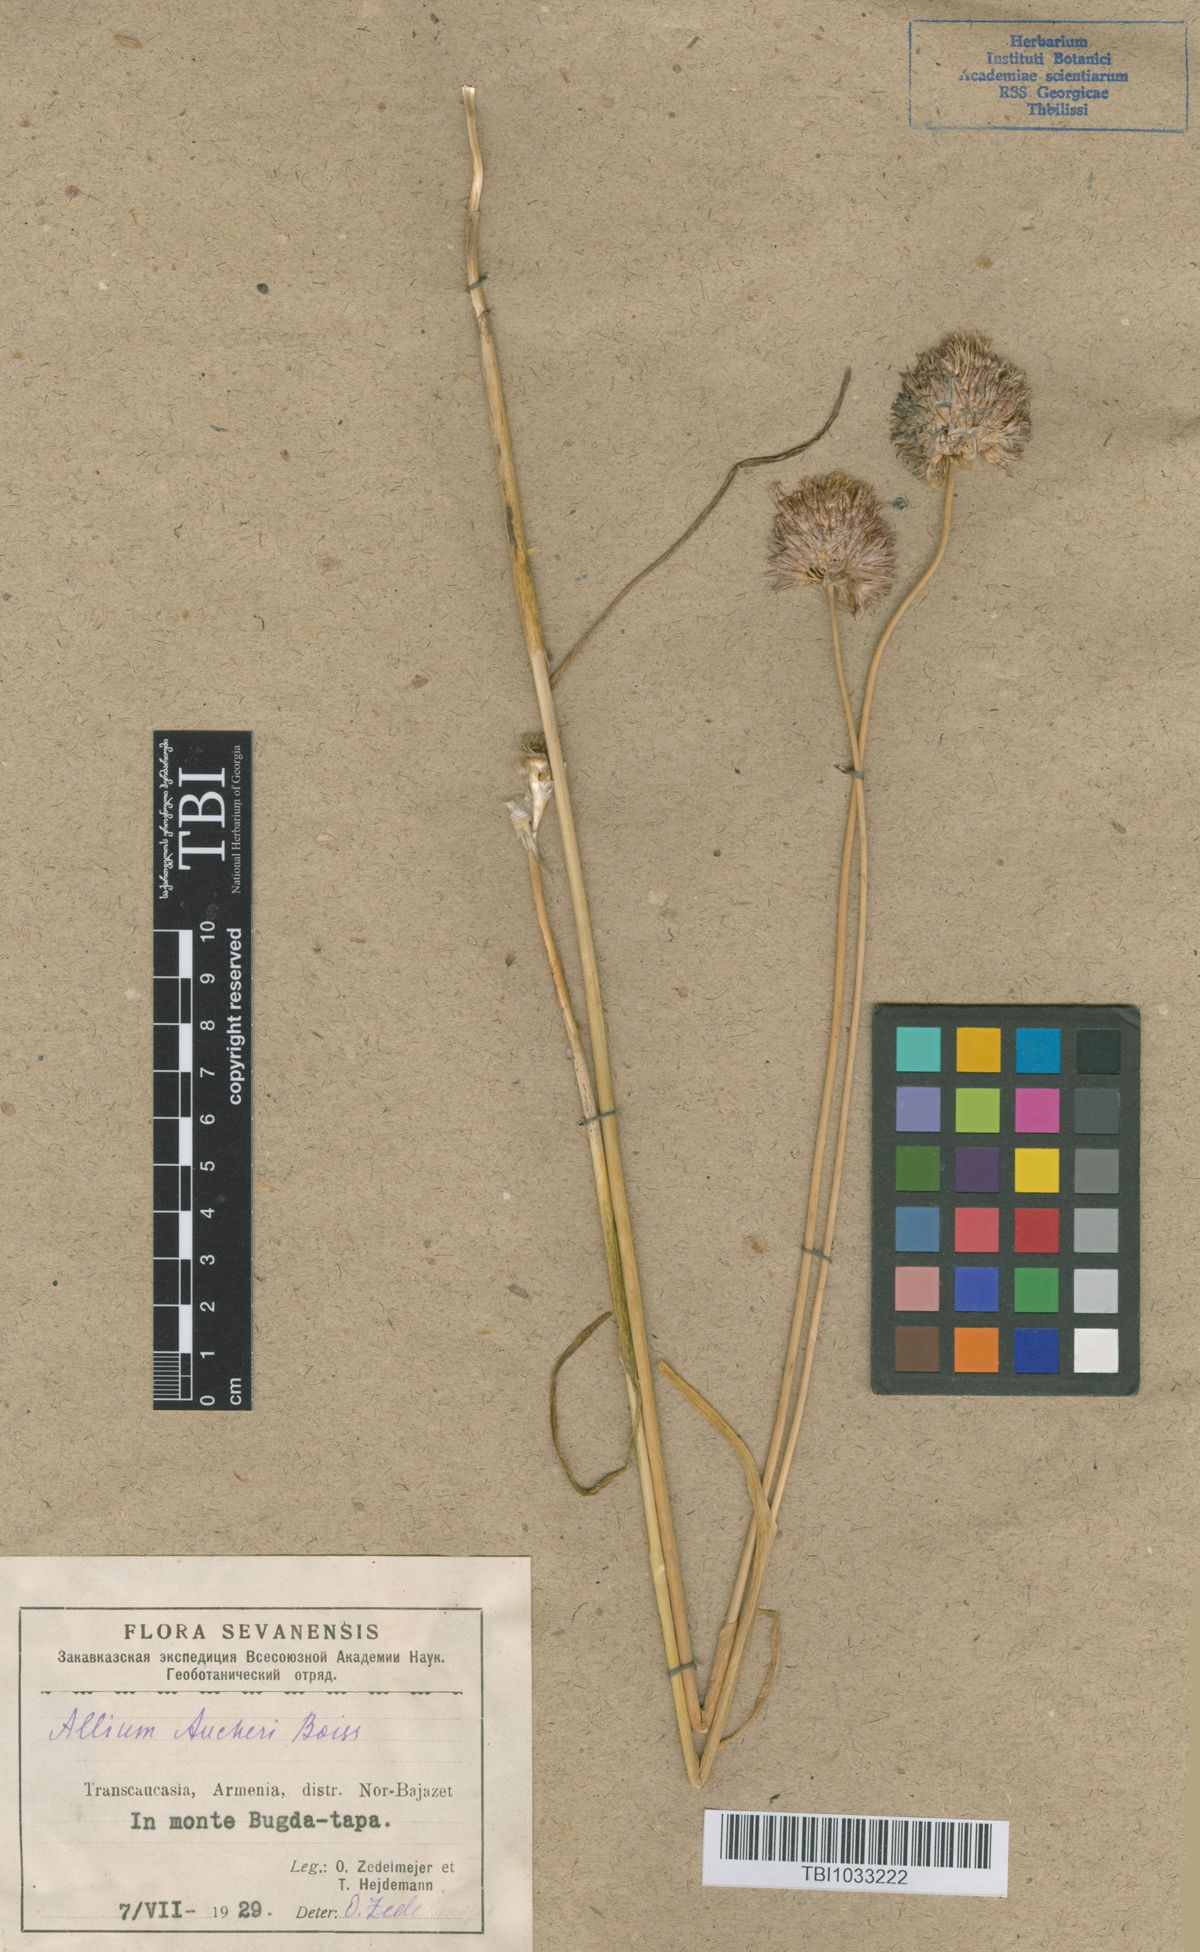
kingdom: Plantae
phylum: Tracheophyta
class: Liliopsida
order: Asparagales
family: Amaryllidaceae
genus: Allium
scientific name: Allium aucheri
